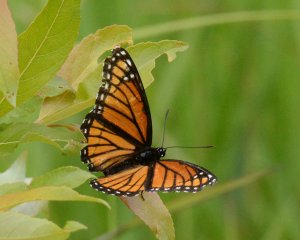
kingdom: Animalia
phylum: Arthropoda
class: Insecta
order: Lepidoptera
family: Nymphalidae
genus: Limenitis
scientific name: Limenitis archippus
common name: Viceroy
